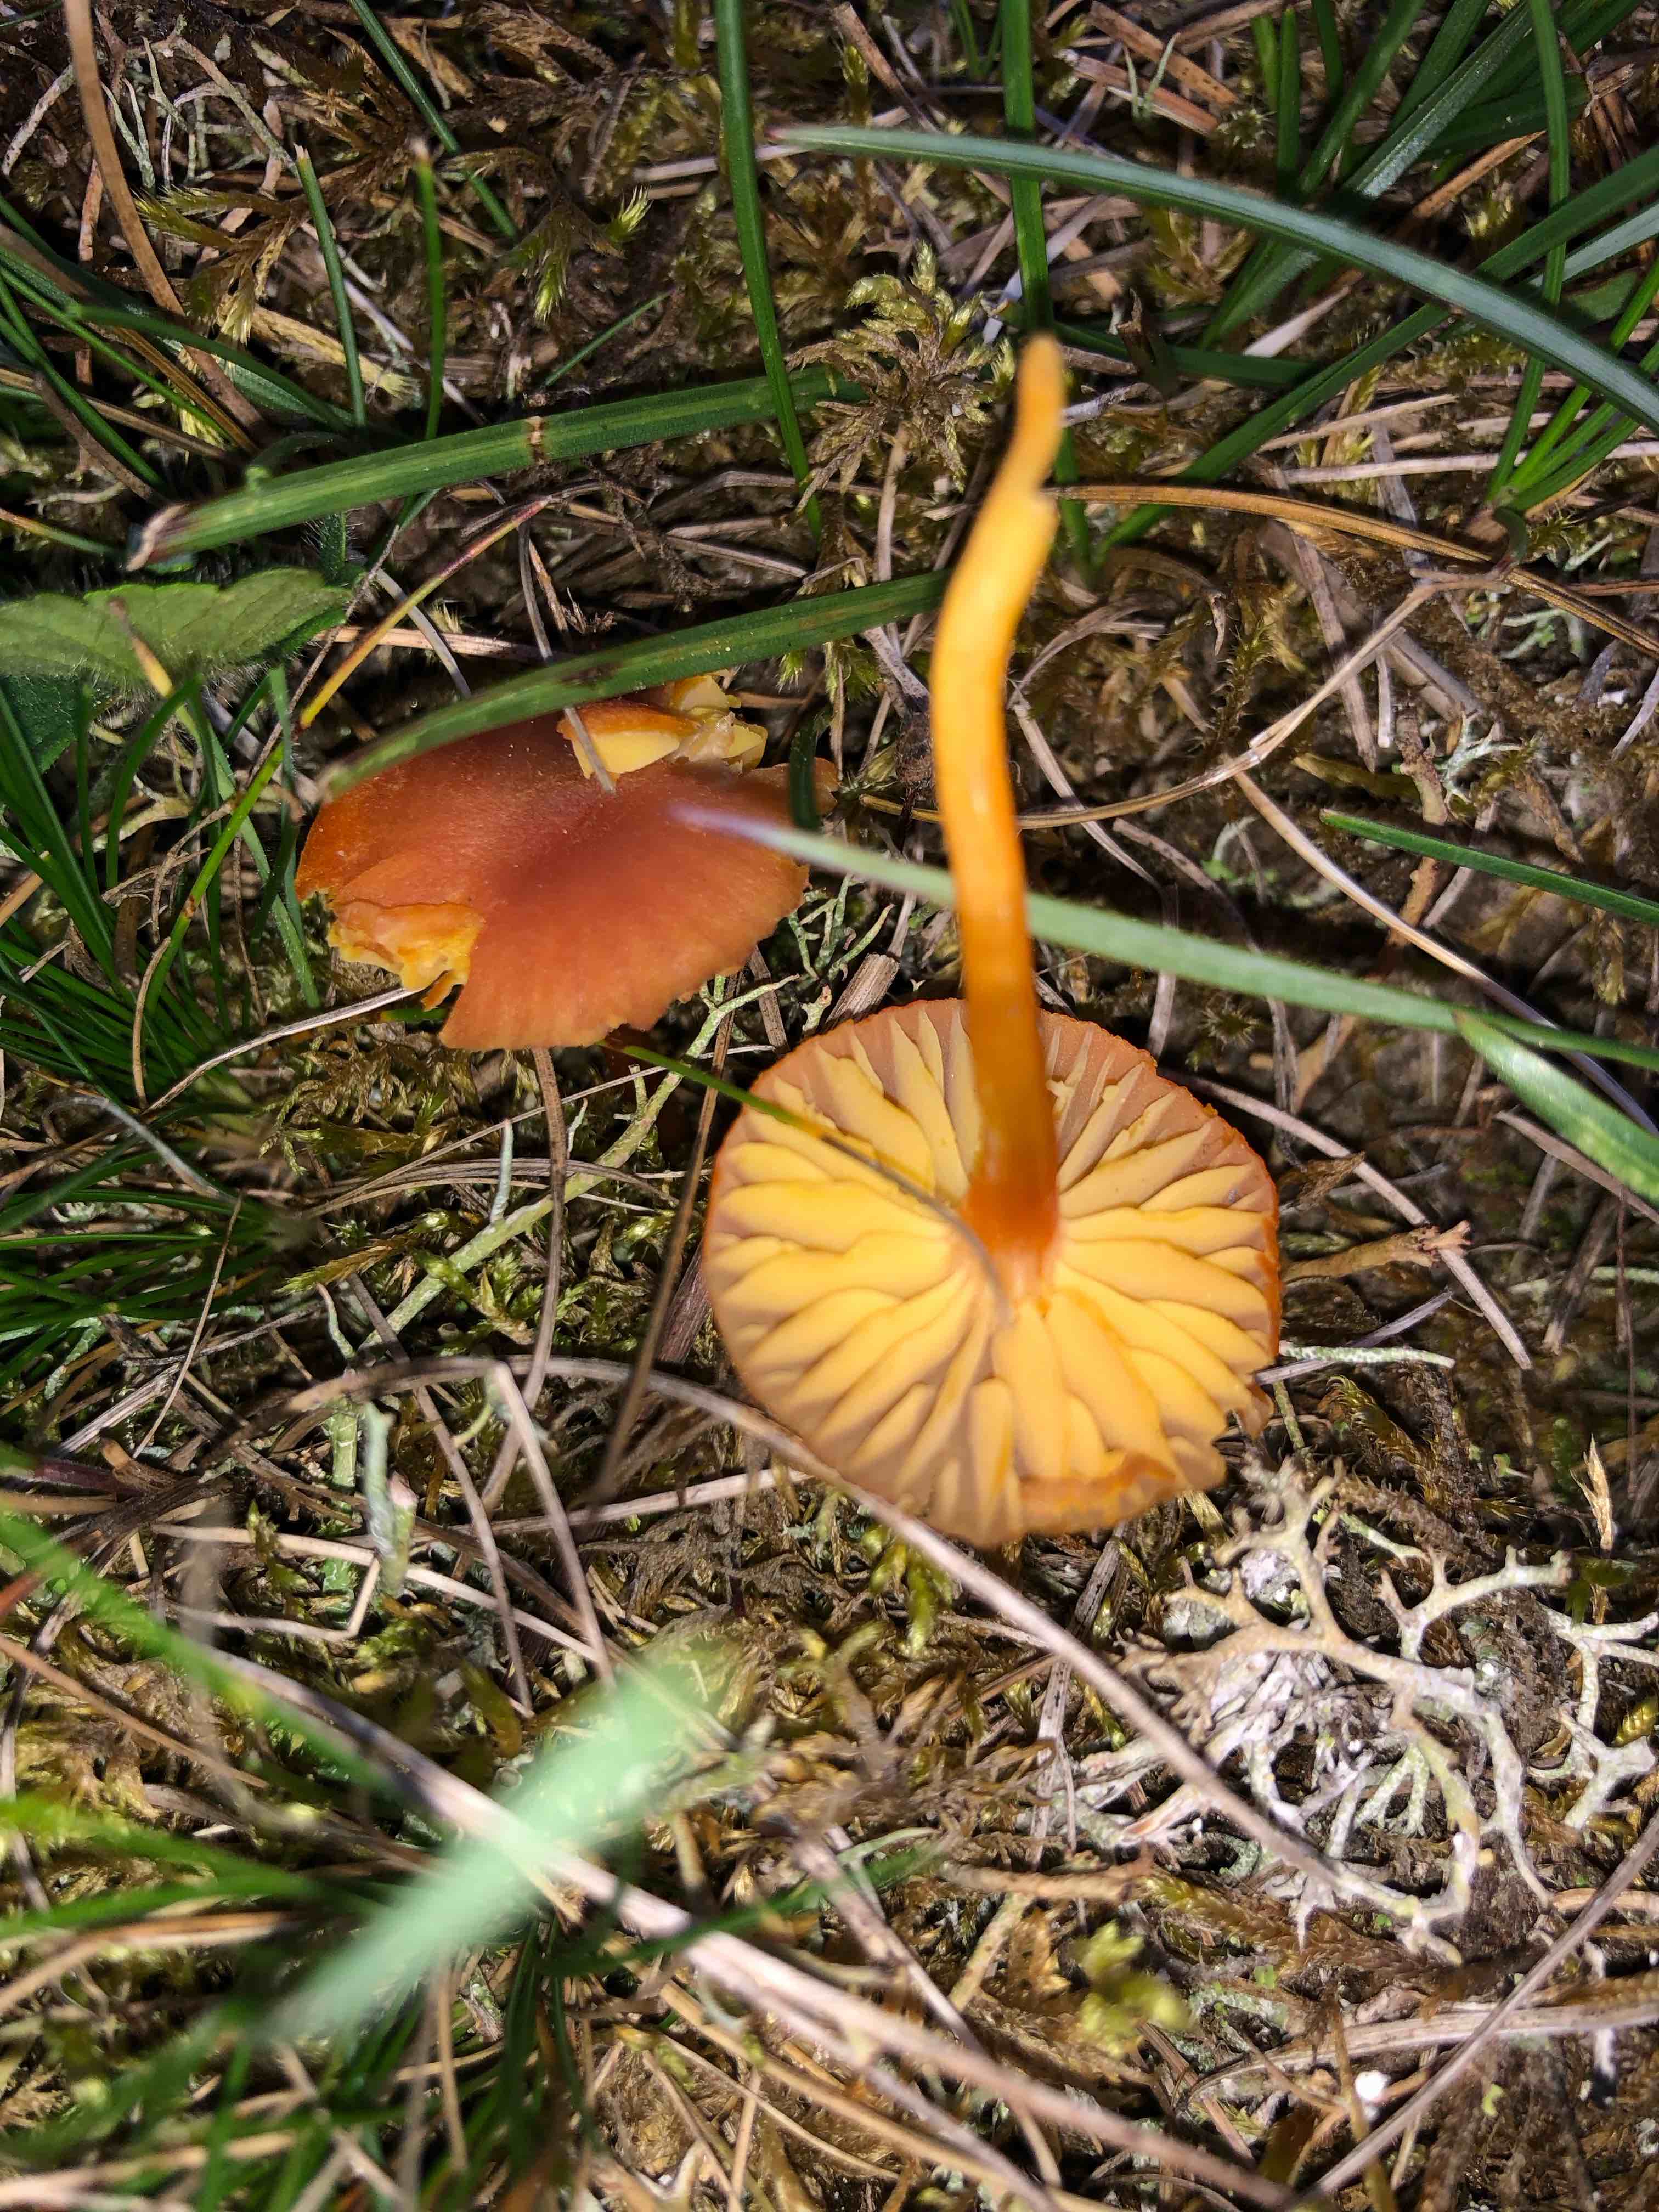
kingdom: Fungi
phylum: Basidiomycota
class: Agaricomycetes
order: Agaricales
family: Hygrophoraceae
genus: Hygrocybe
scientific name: Hygrocybe calciphila
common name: kalk-vokshat
